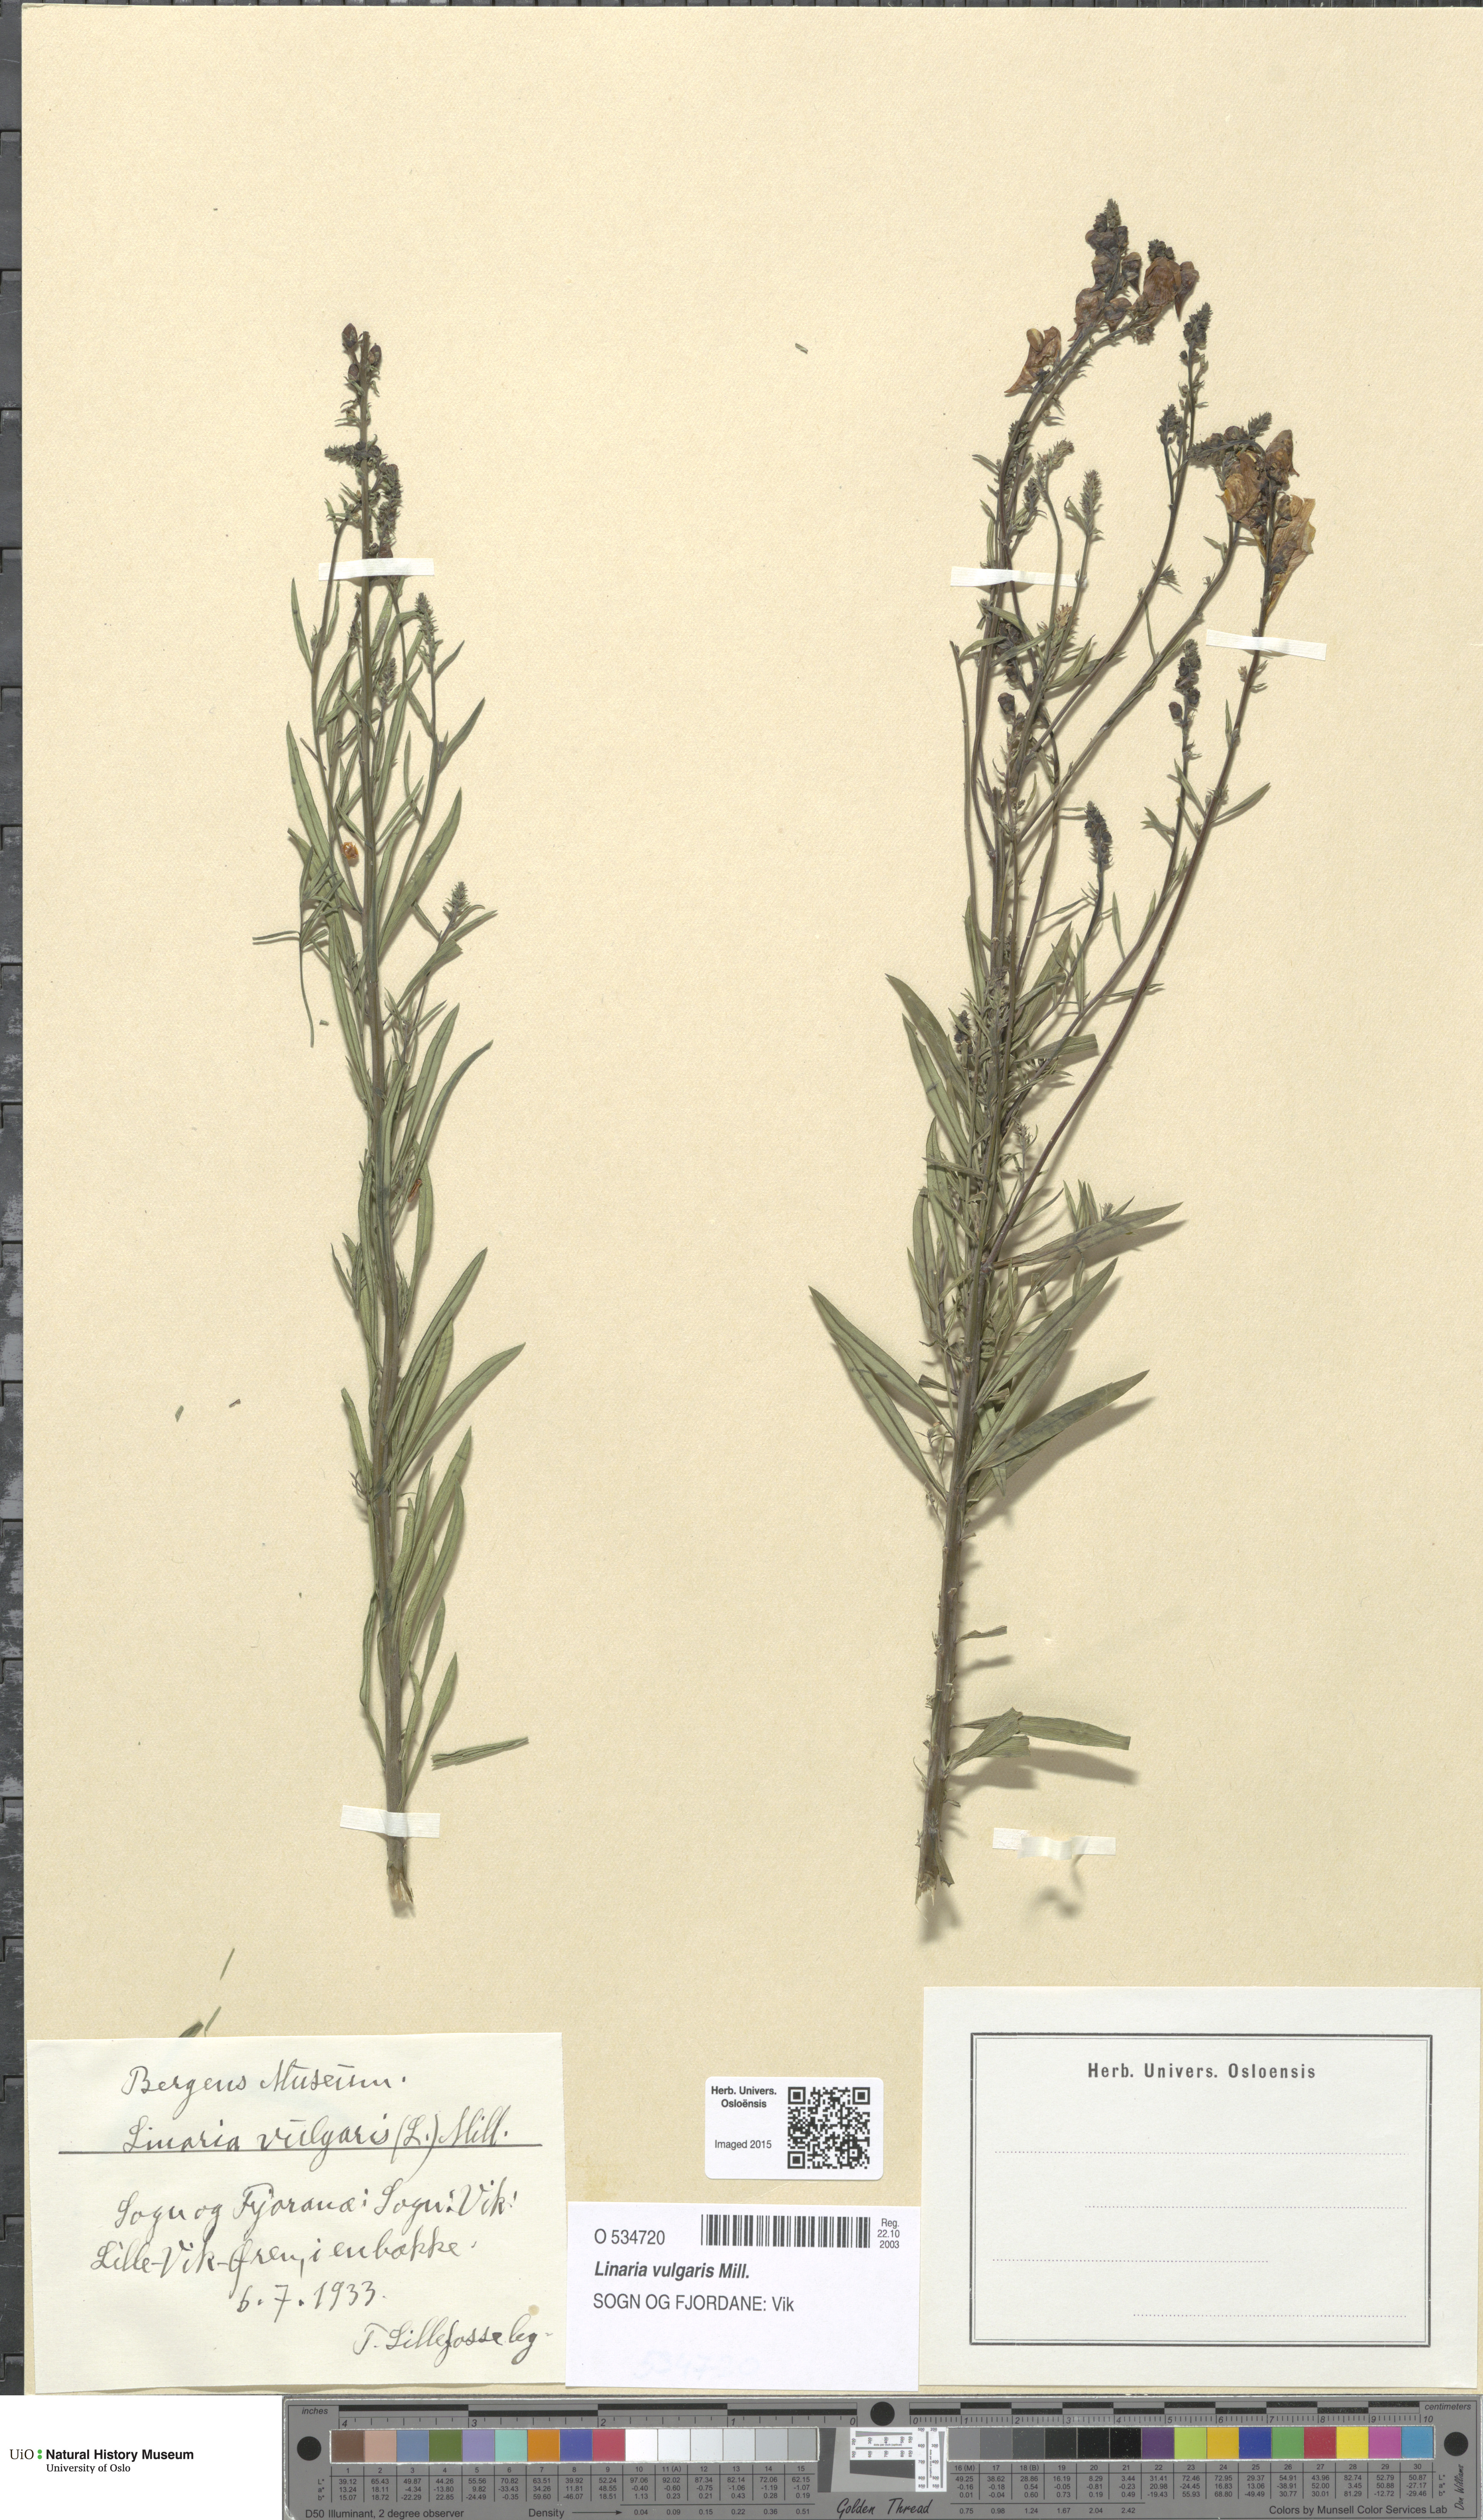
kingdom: Plantae
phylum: Tracheophyta
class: Magnoliopsida
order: Lamiales
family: Plantaginaceae
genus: Linaria
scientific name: Linaria vulgaris
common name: Butter and eggs
